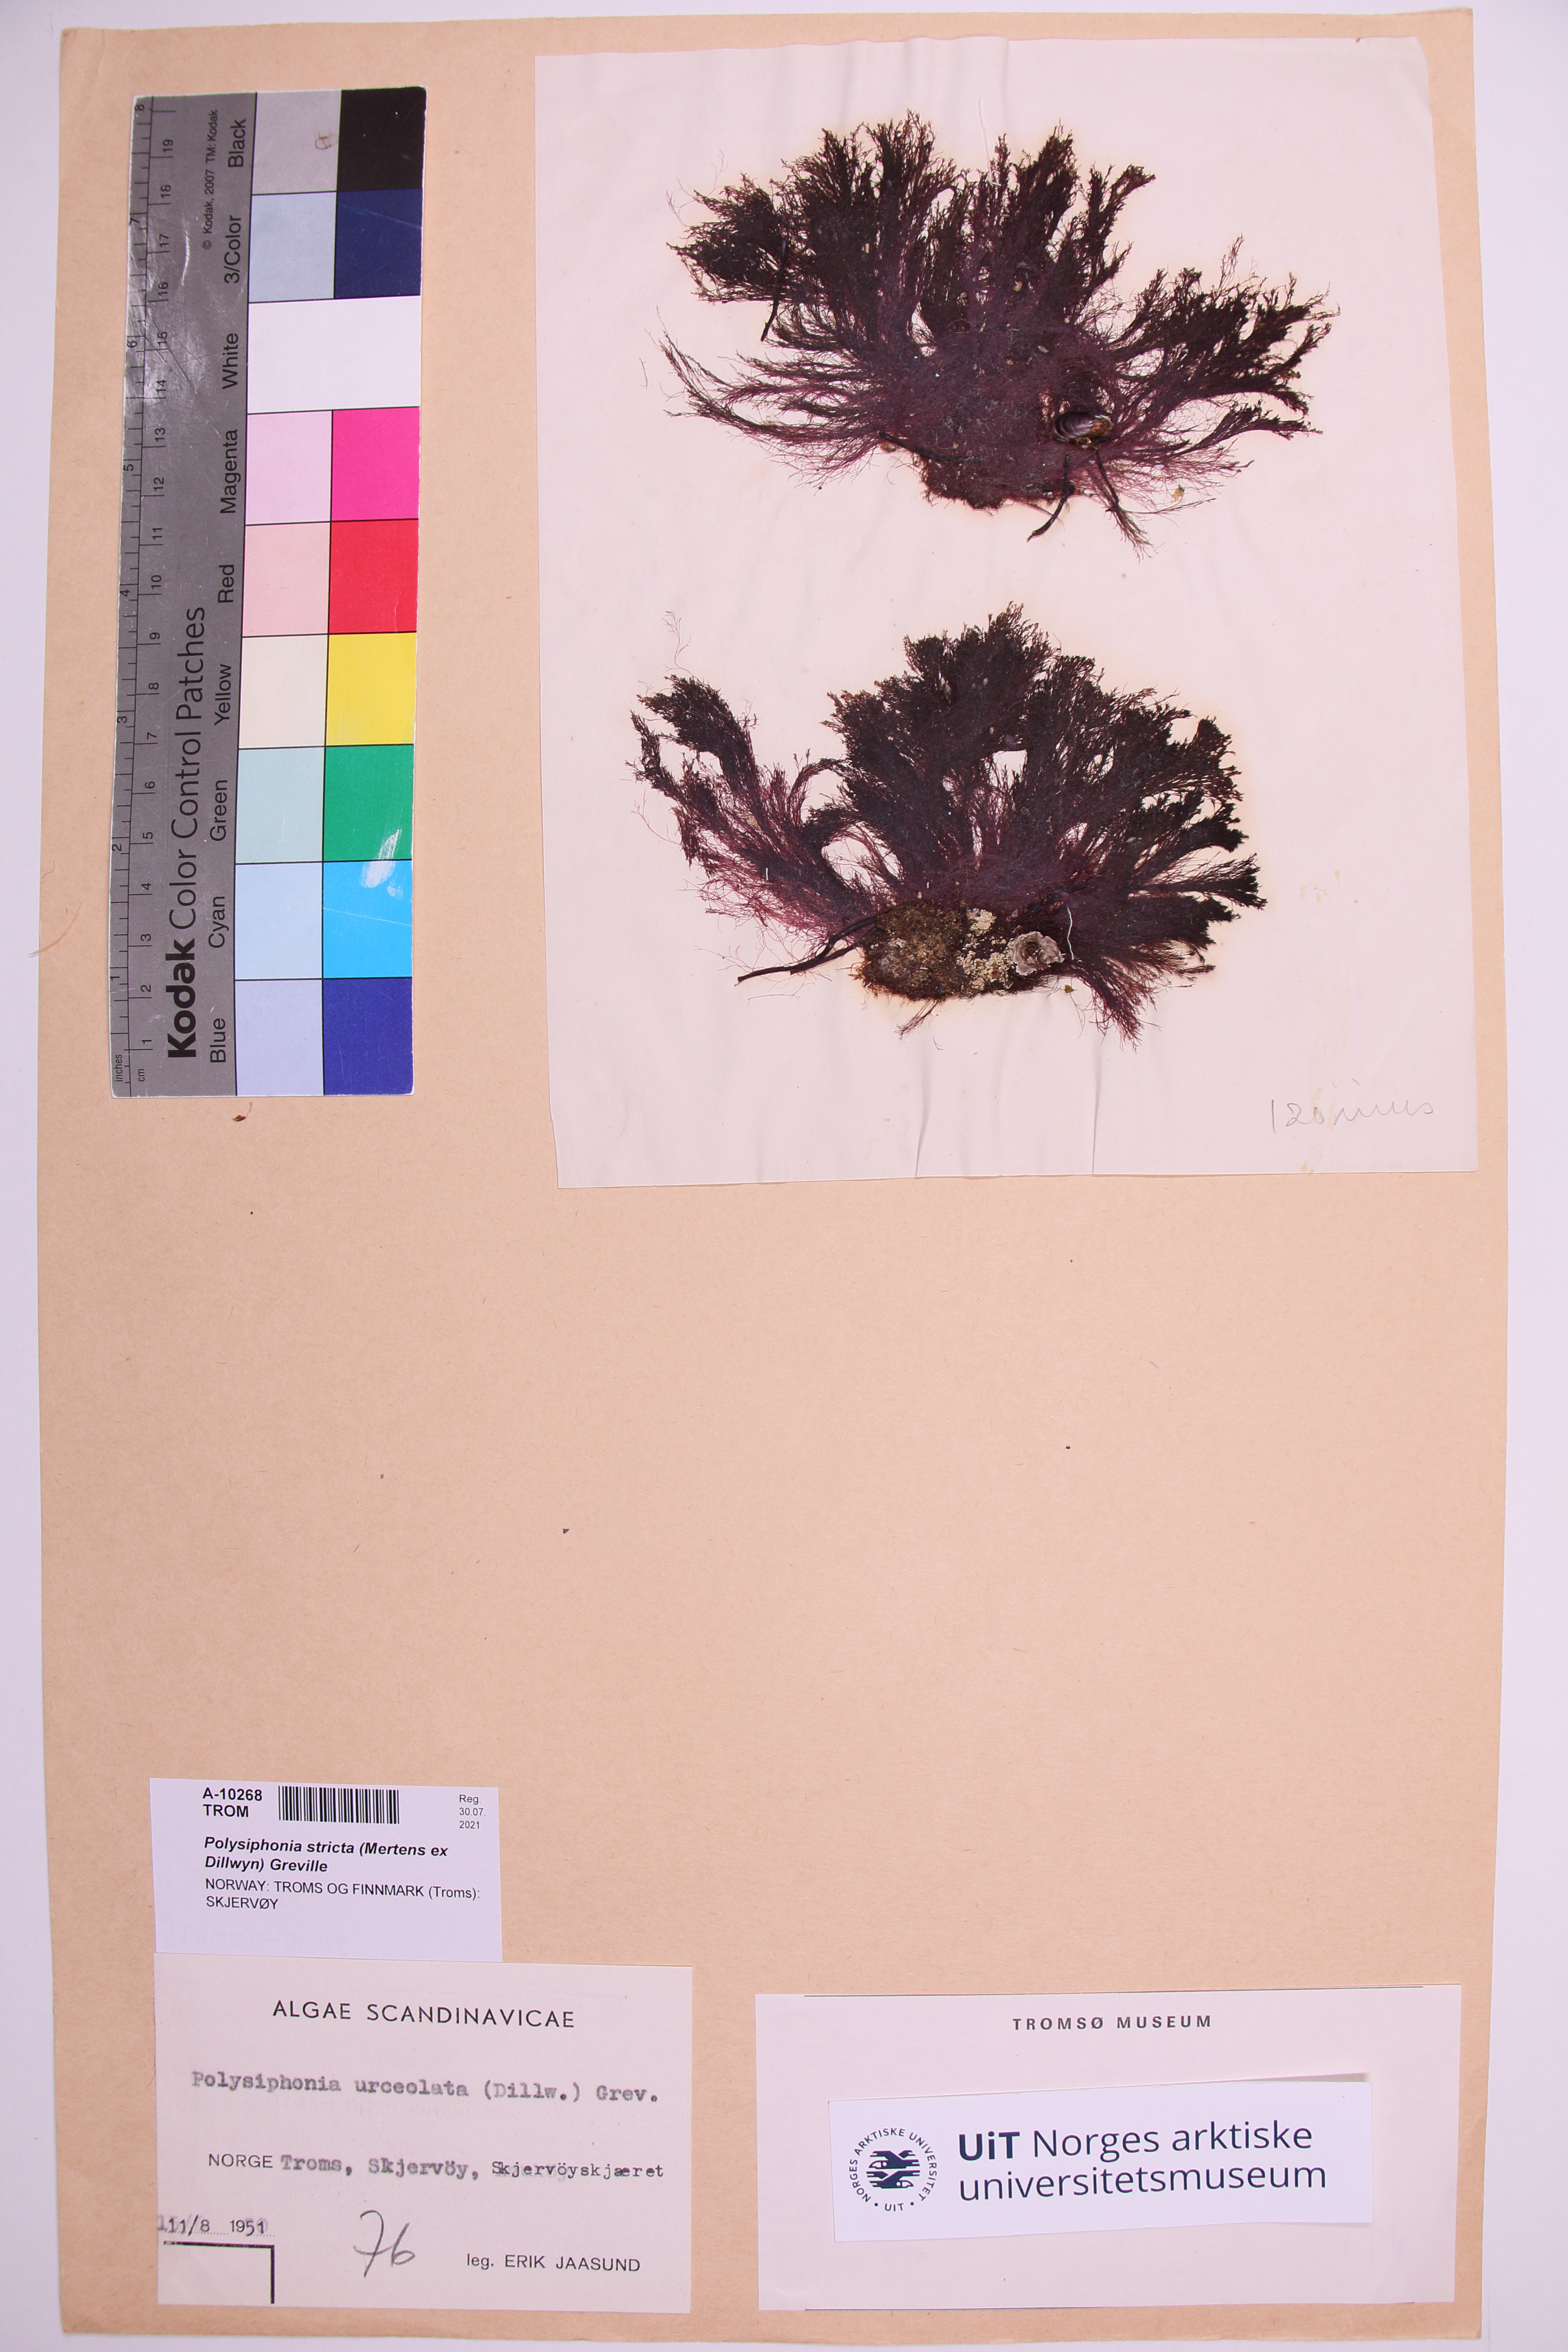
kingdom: Plantae
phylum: Rhodophyta
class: Florideophyceae
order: Ceramiales
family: Rhodomelaceae
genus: Polysiphonia
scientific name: Polysiphonia stricta
